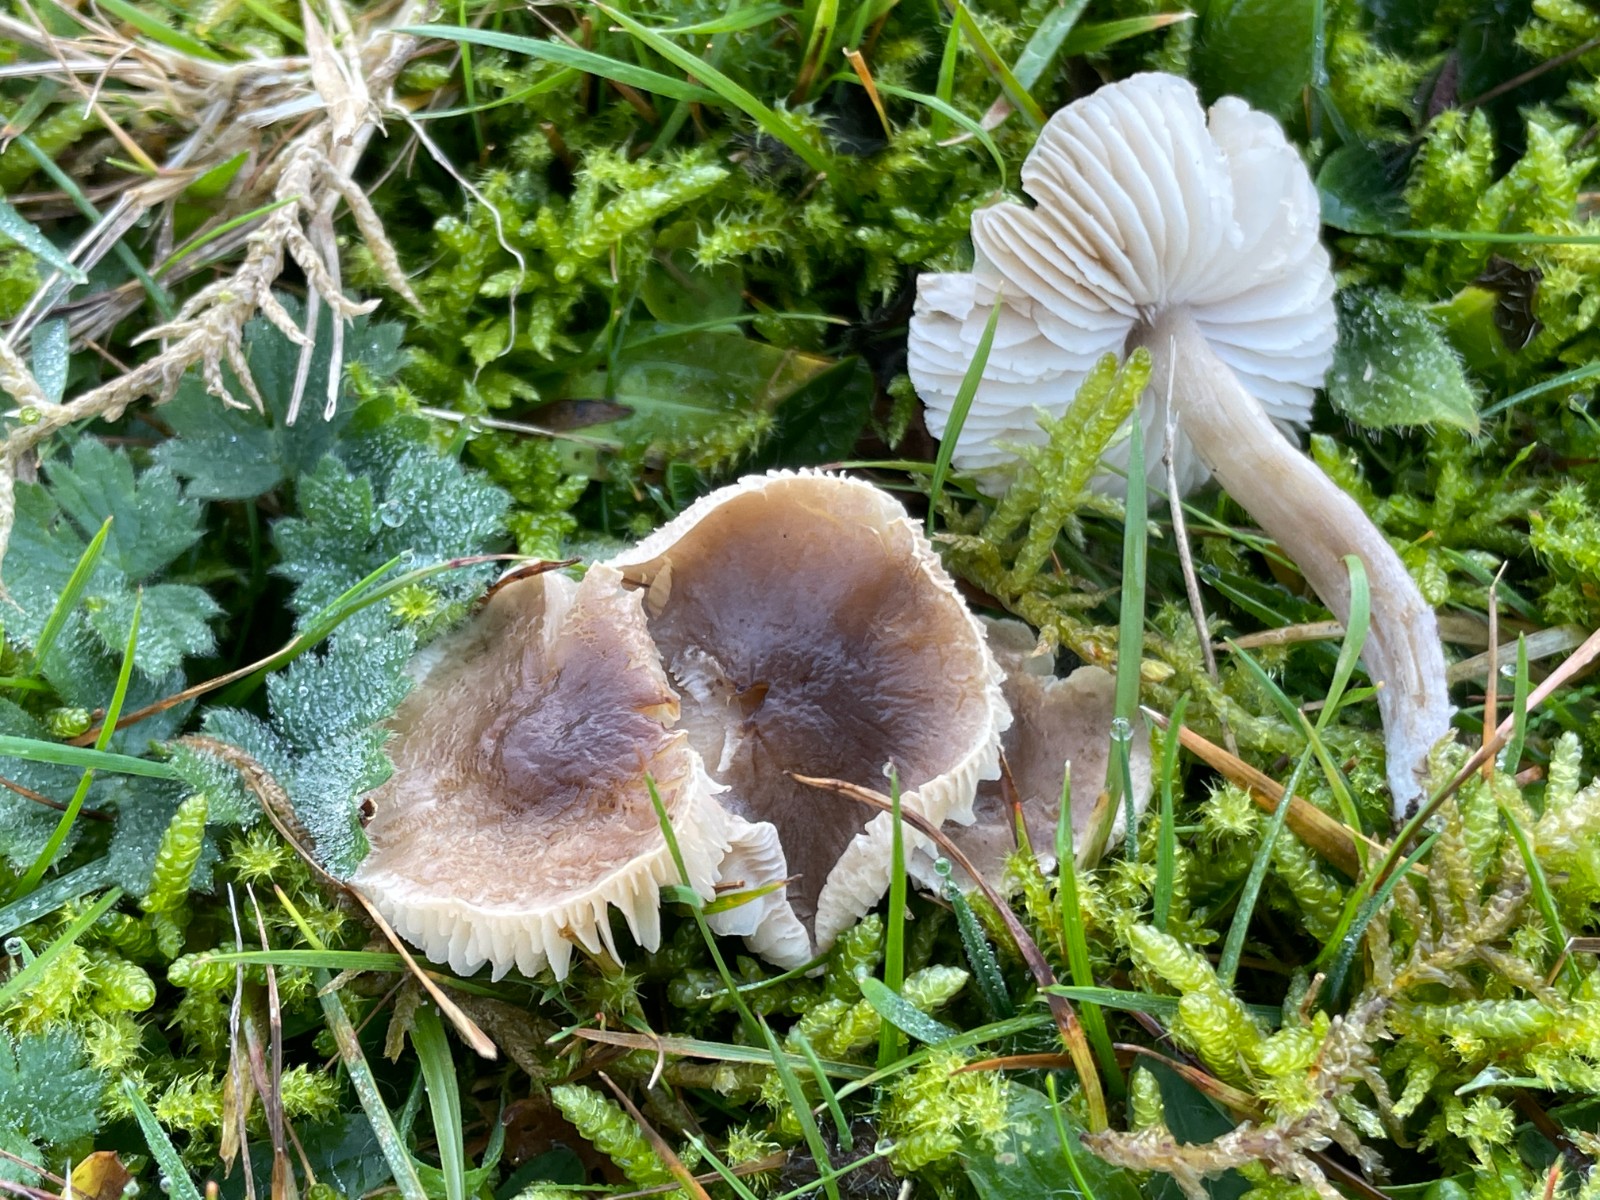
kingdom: Fungi
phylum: Basidiomycota
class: Agaricomycetes
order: Agaricales
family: Tricholomataceae
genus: Dermoloma
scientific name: Dermoloma cuneifolium
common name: eng-nonnehat
